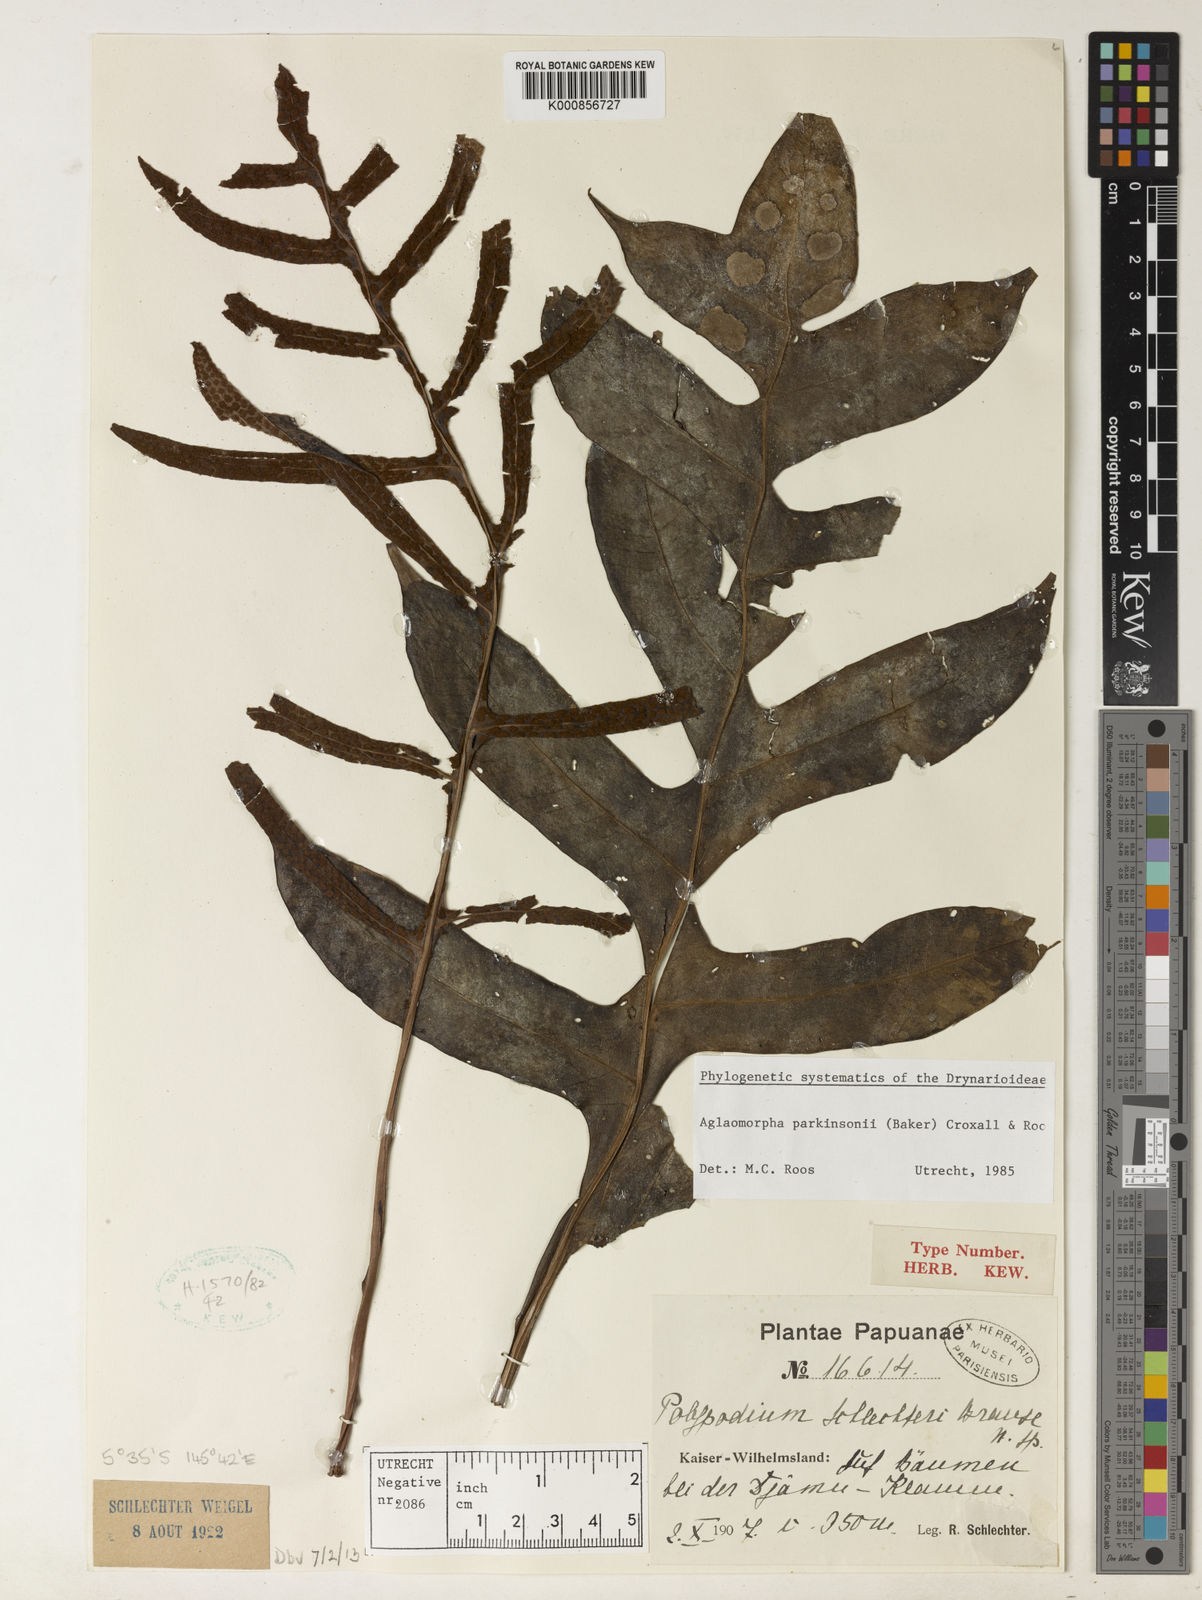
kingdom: Plantae
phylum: Tracheophyta
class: Polypodiopsida
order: Polypodiales
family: Polypodiaceae
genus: Drynaria
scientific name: Drynaria parkinsonii
